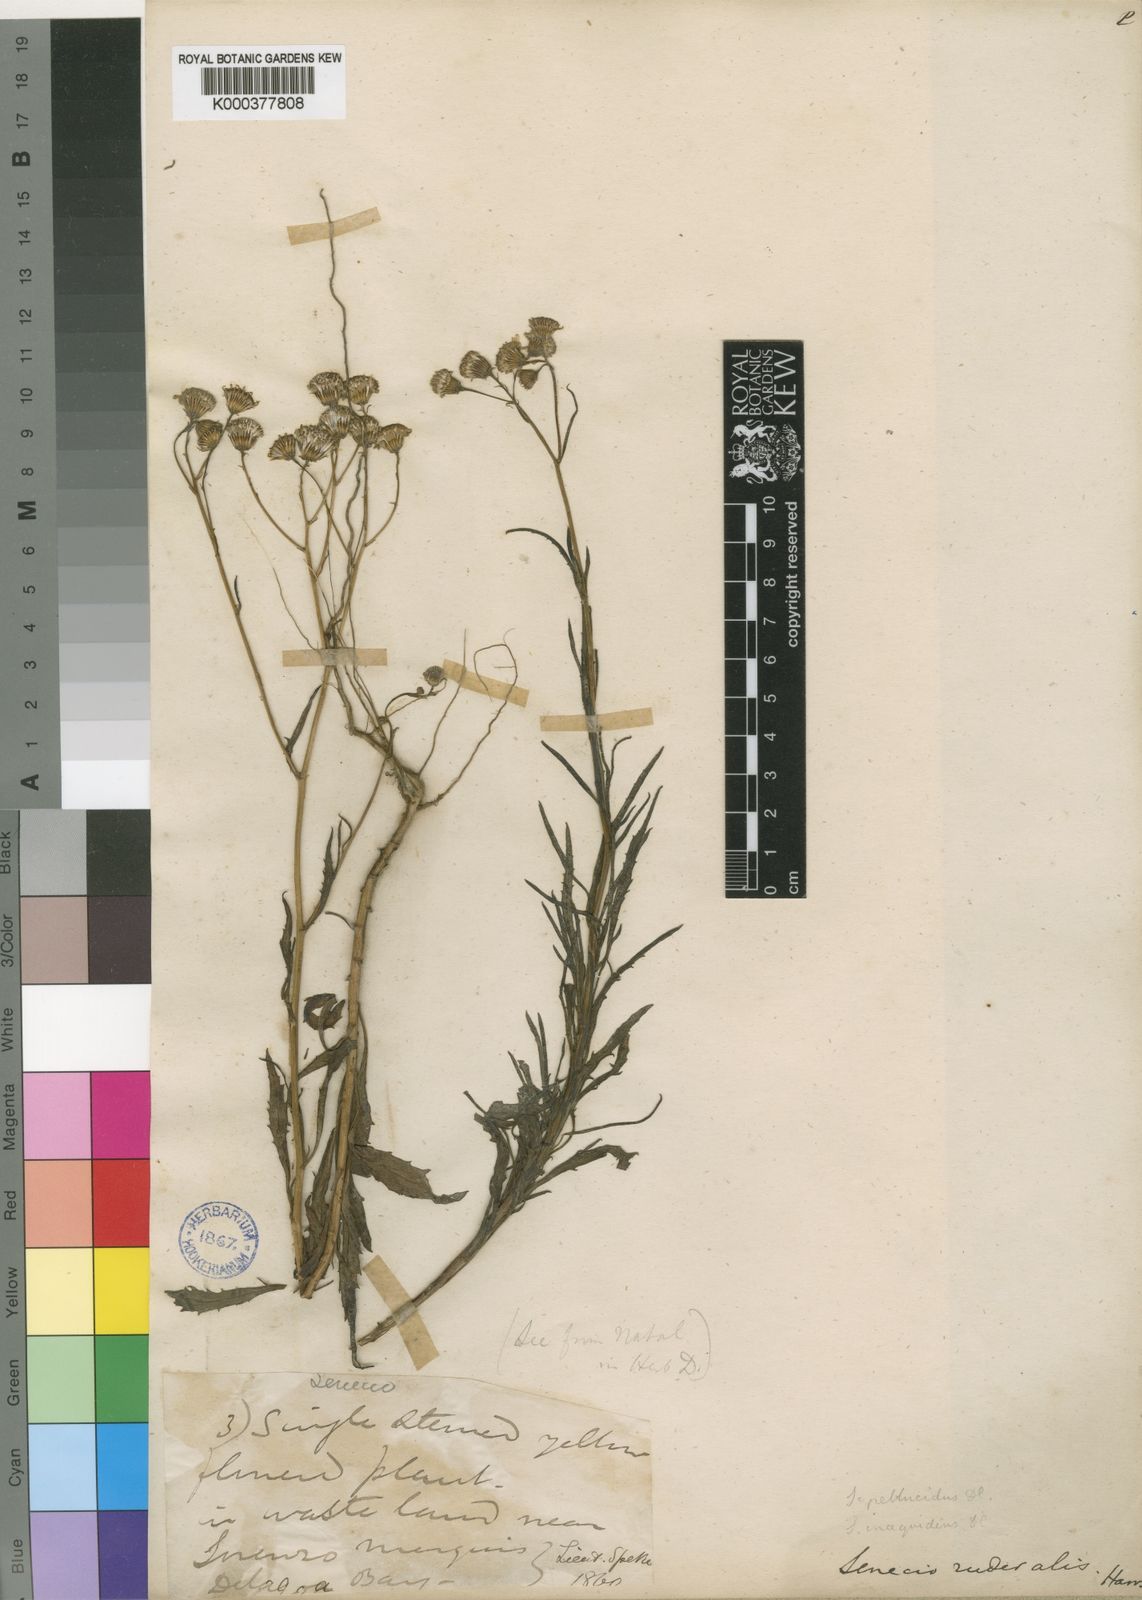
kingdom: Plantae
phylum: Tracheophyta
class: Magnoliopsida
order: Asterales
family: Asteraceae
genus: Senecio
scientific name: Senecio madagascariensis
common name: Madagascar ragwort
